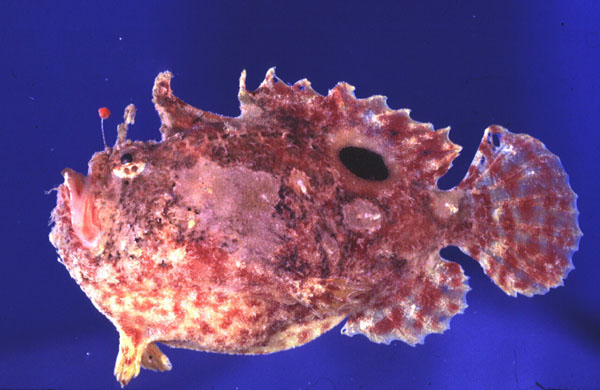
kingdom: Animalia
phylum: Chordata
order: Lophiiformes
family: Antennariidae
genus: Antennatus
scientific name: Antennatus nummifer
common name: Spotfin frogfish
